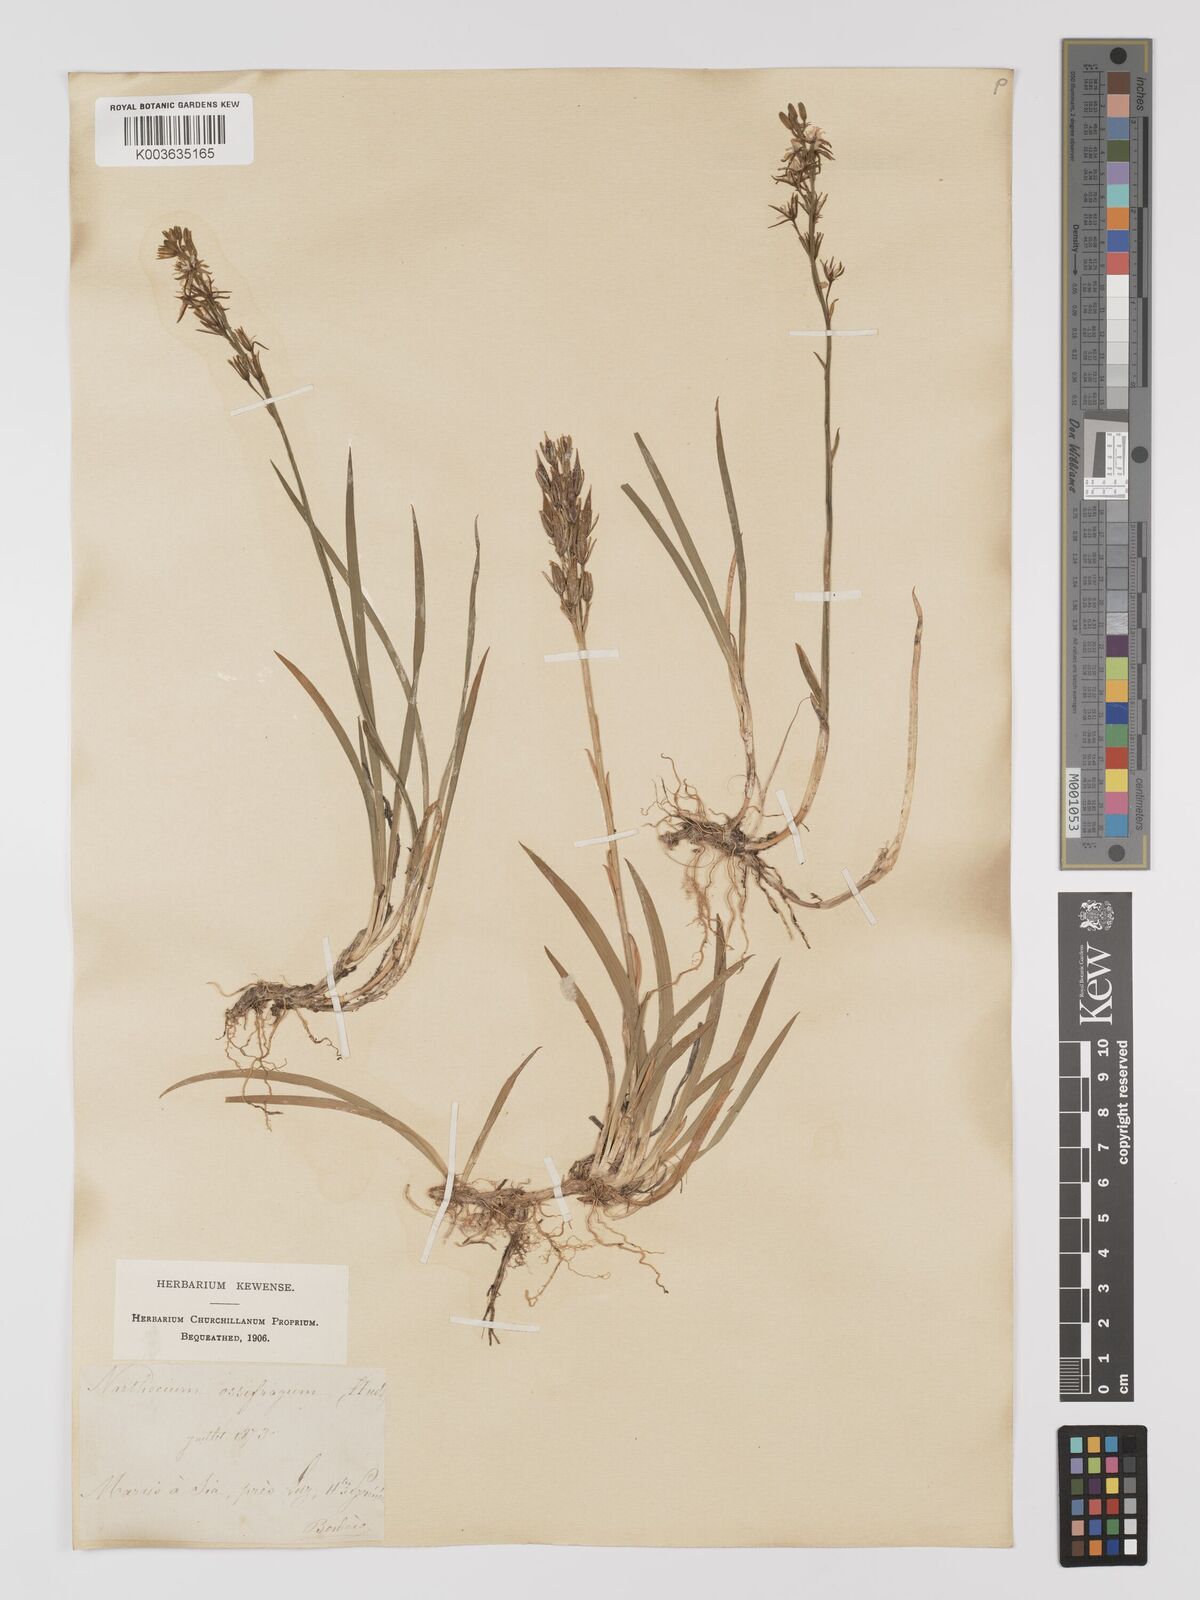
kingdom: Plantae
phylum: Tracheophyta
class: Liliopsida
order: Dioscoreales
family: Nartheciaceae
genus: Narthecium
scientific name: Narthecium ossifragum
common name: Bog asphodel
